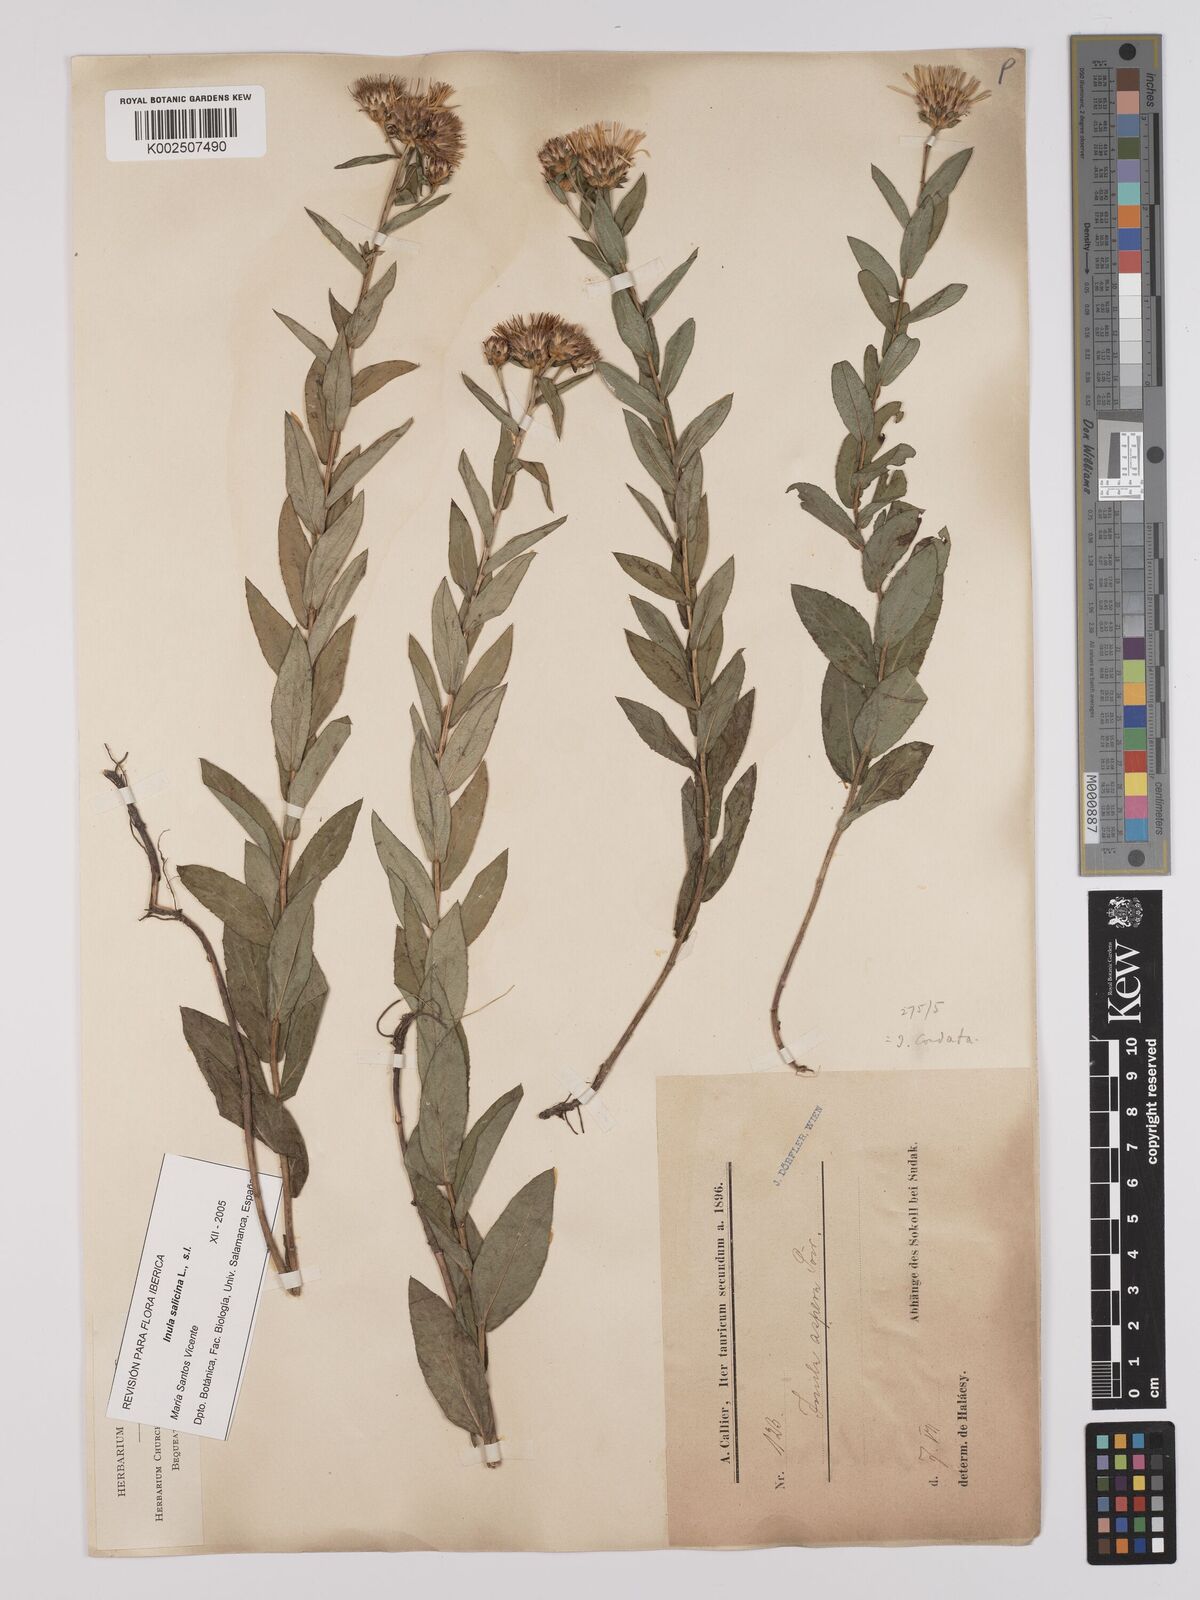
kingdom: Plantae
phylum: Tracheophyta
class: Magnoliopsida
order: Asterales
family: Asteraceae
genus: Pentanema
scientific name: Pentanema salicinum
